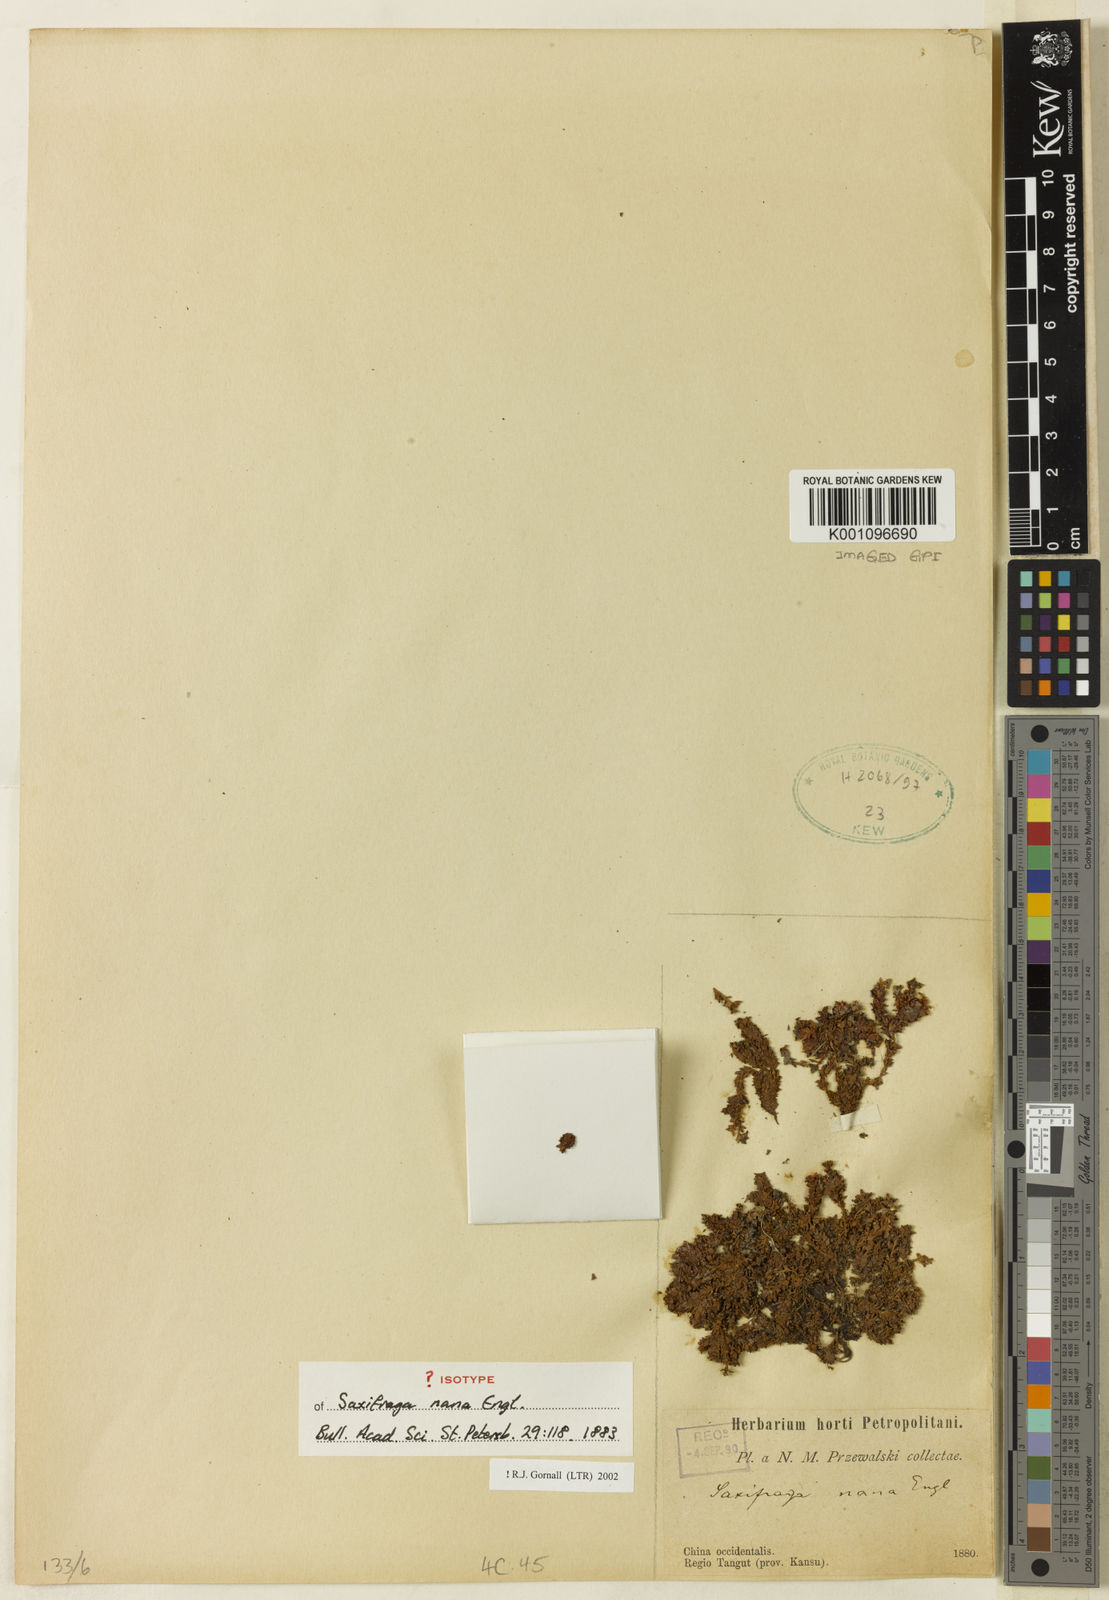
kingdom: Plantae
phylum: Tracheophyta
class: Magnoliopsida
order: Saxifragales
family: Saxifragaceae
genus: Saxifraga
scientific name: Saxifraga nana
